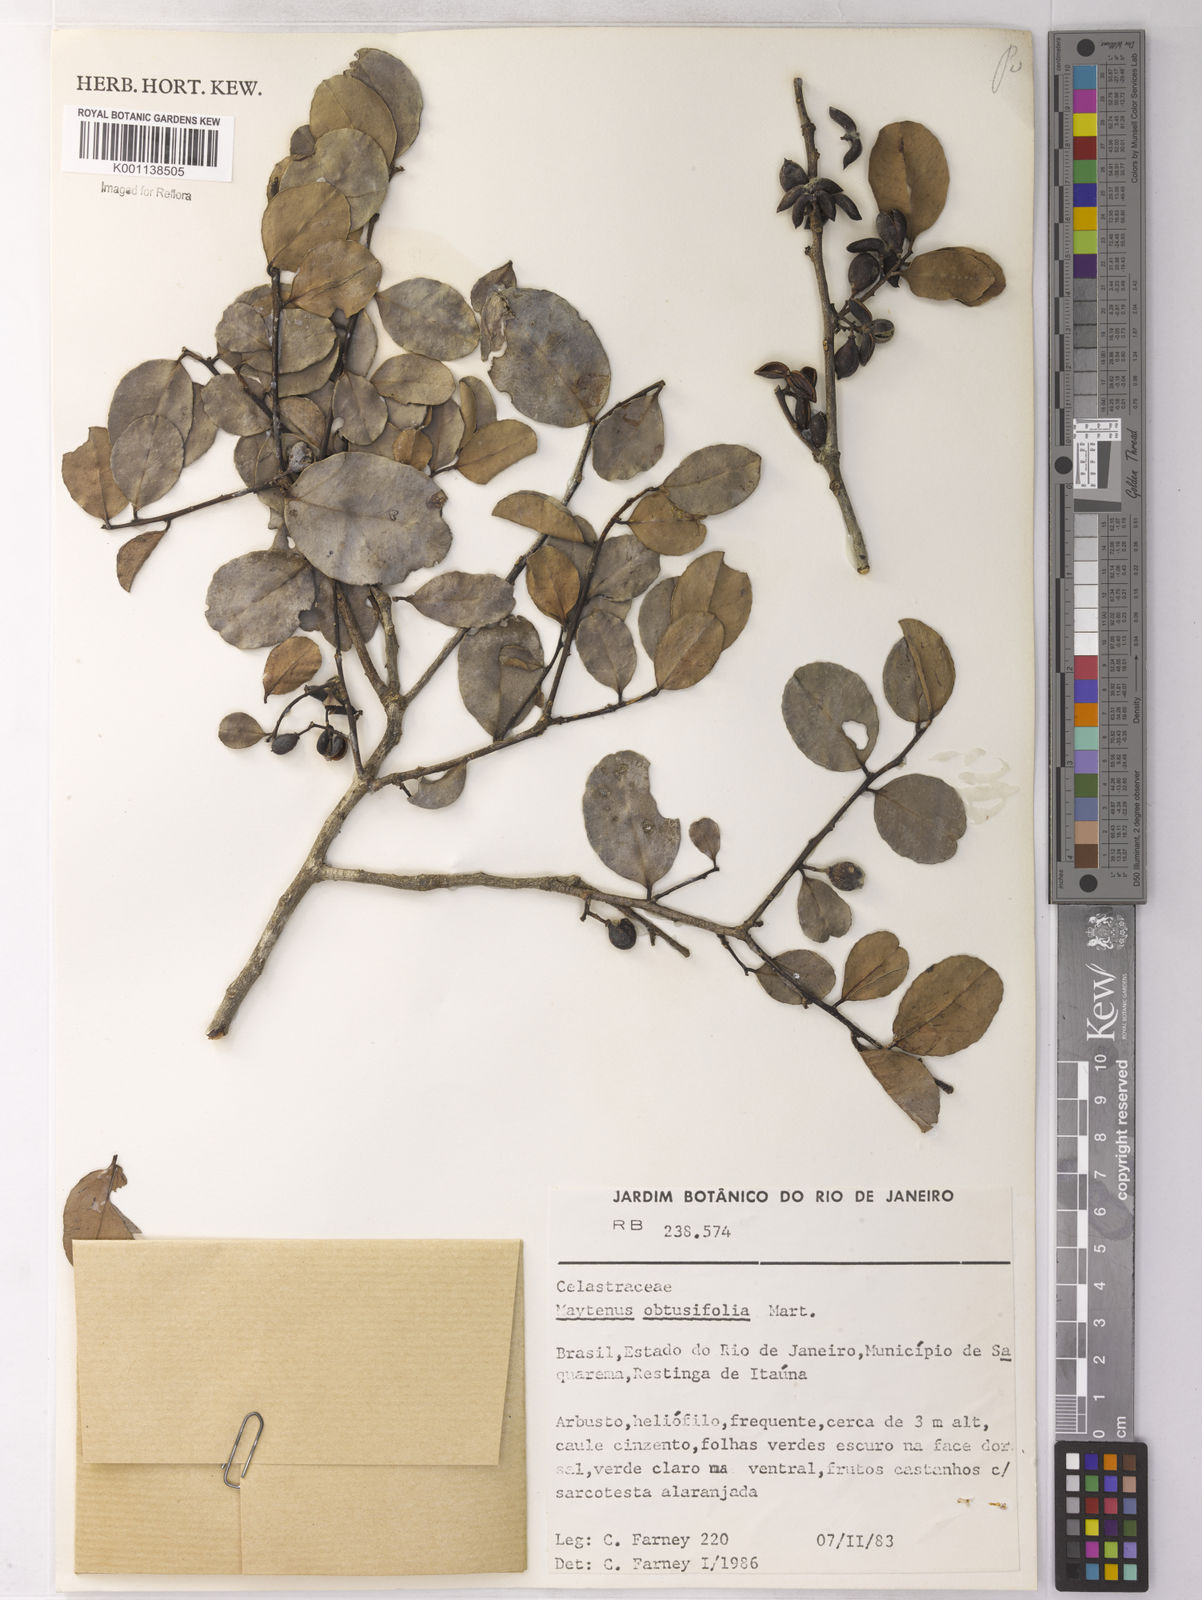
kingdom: Plantae
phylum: Tracheophyta
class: Magnoliopsida
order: Celastrales
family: Celastraceae
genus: Monteverdia
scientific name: Monteverdia obtusifolia
